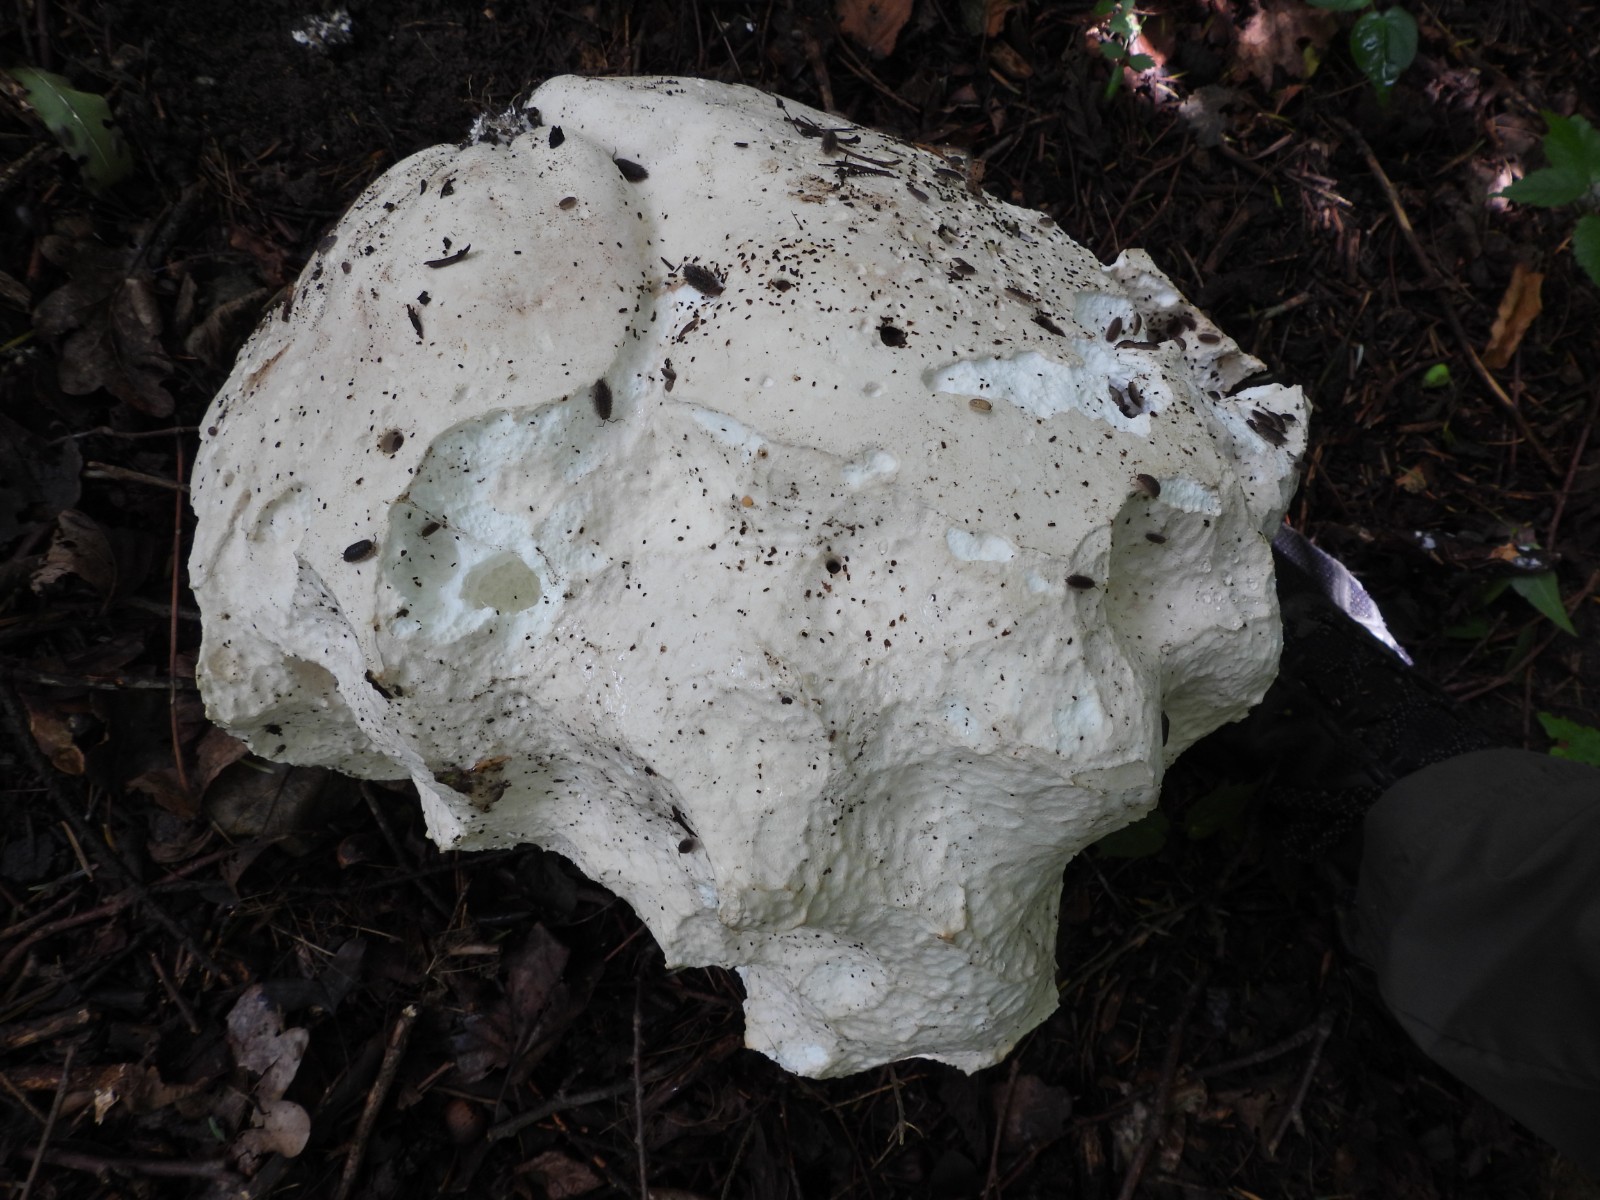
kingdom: Fungi
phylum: Basidiomycota
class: Agaricomycetes
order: Agaricales
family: Lycoperdaceae
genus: Calvatia
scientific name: Calvatia gigantea
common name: kæmpestøvbold
